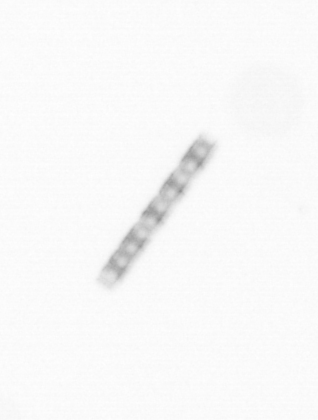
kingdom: Chromista
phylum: Ochrophyta
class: Bacillariophyceae
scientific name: Bacillariophyceae
